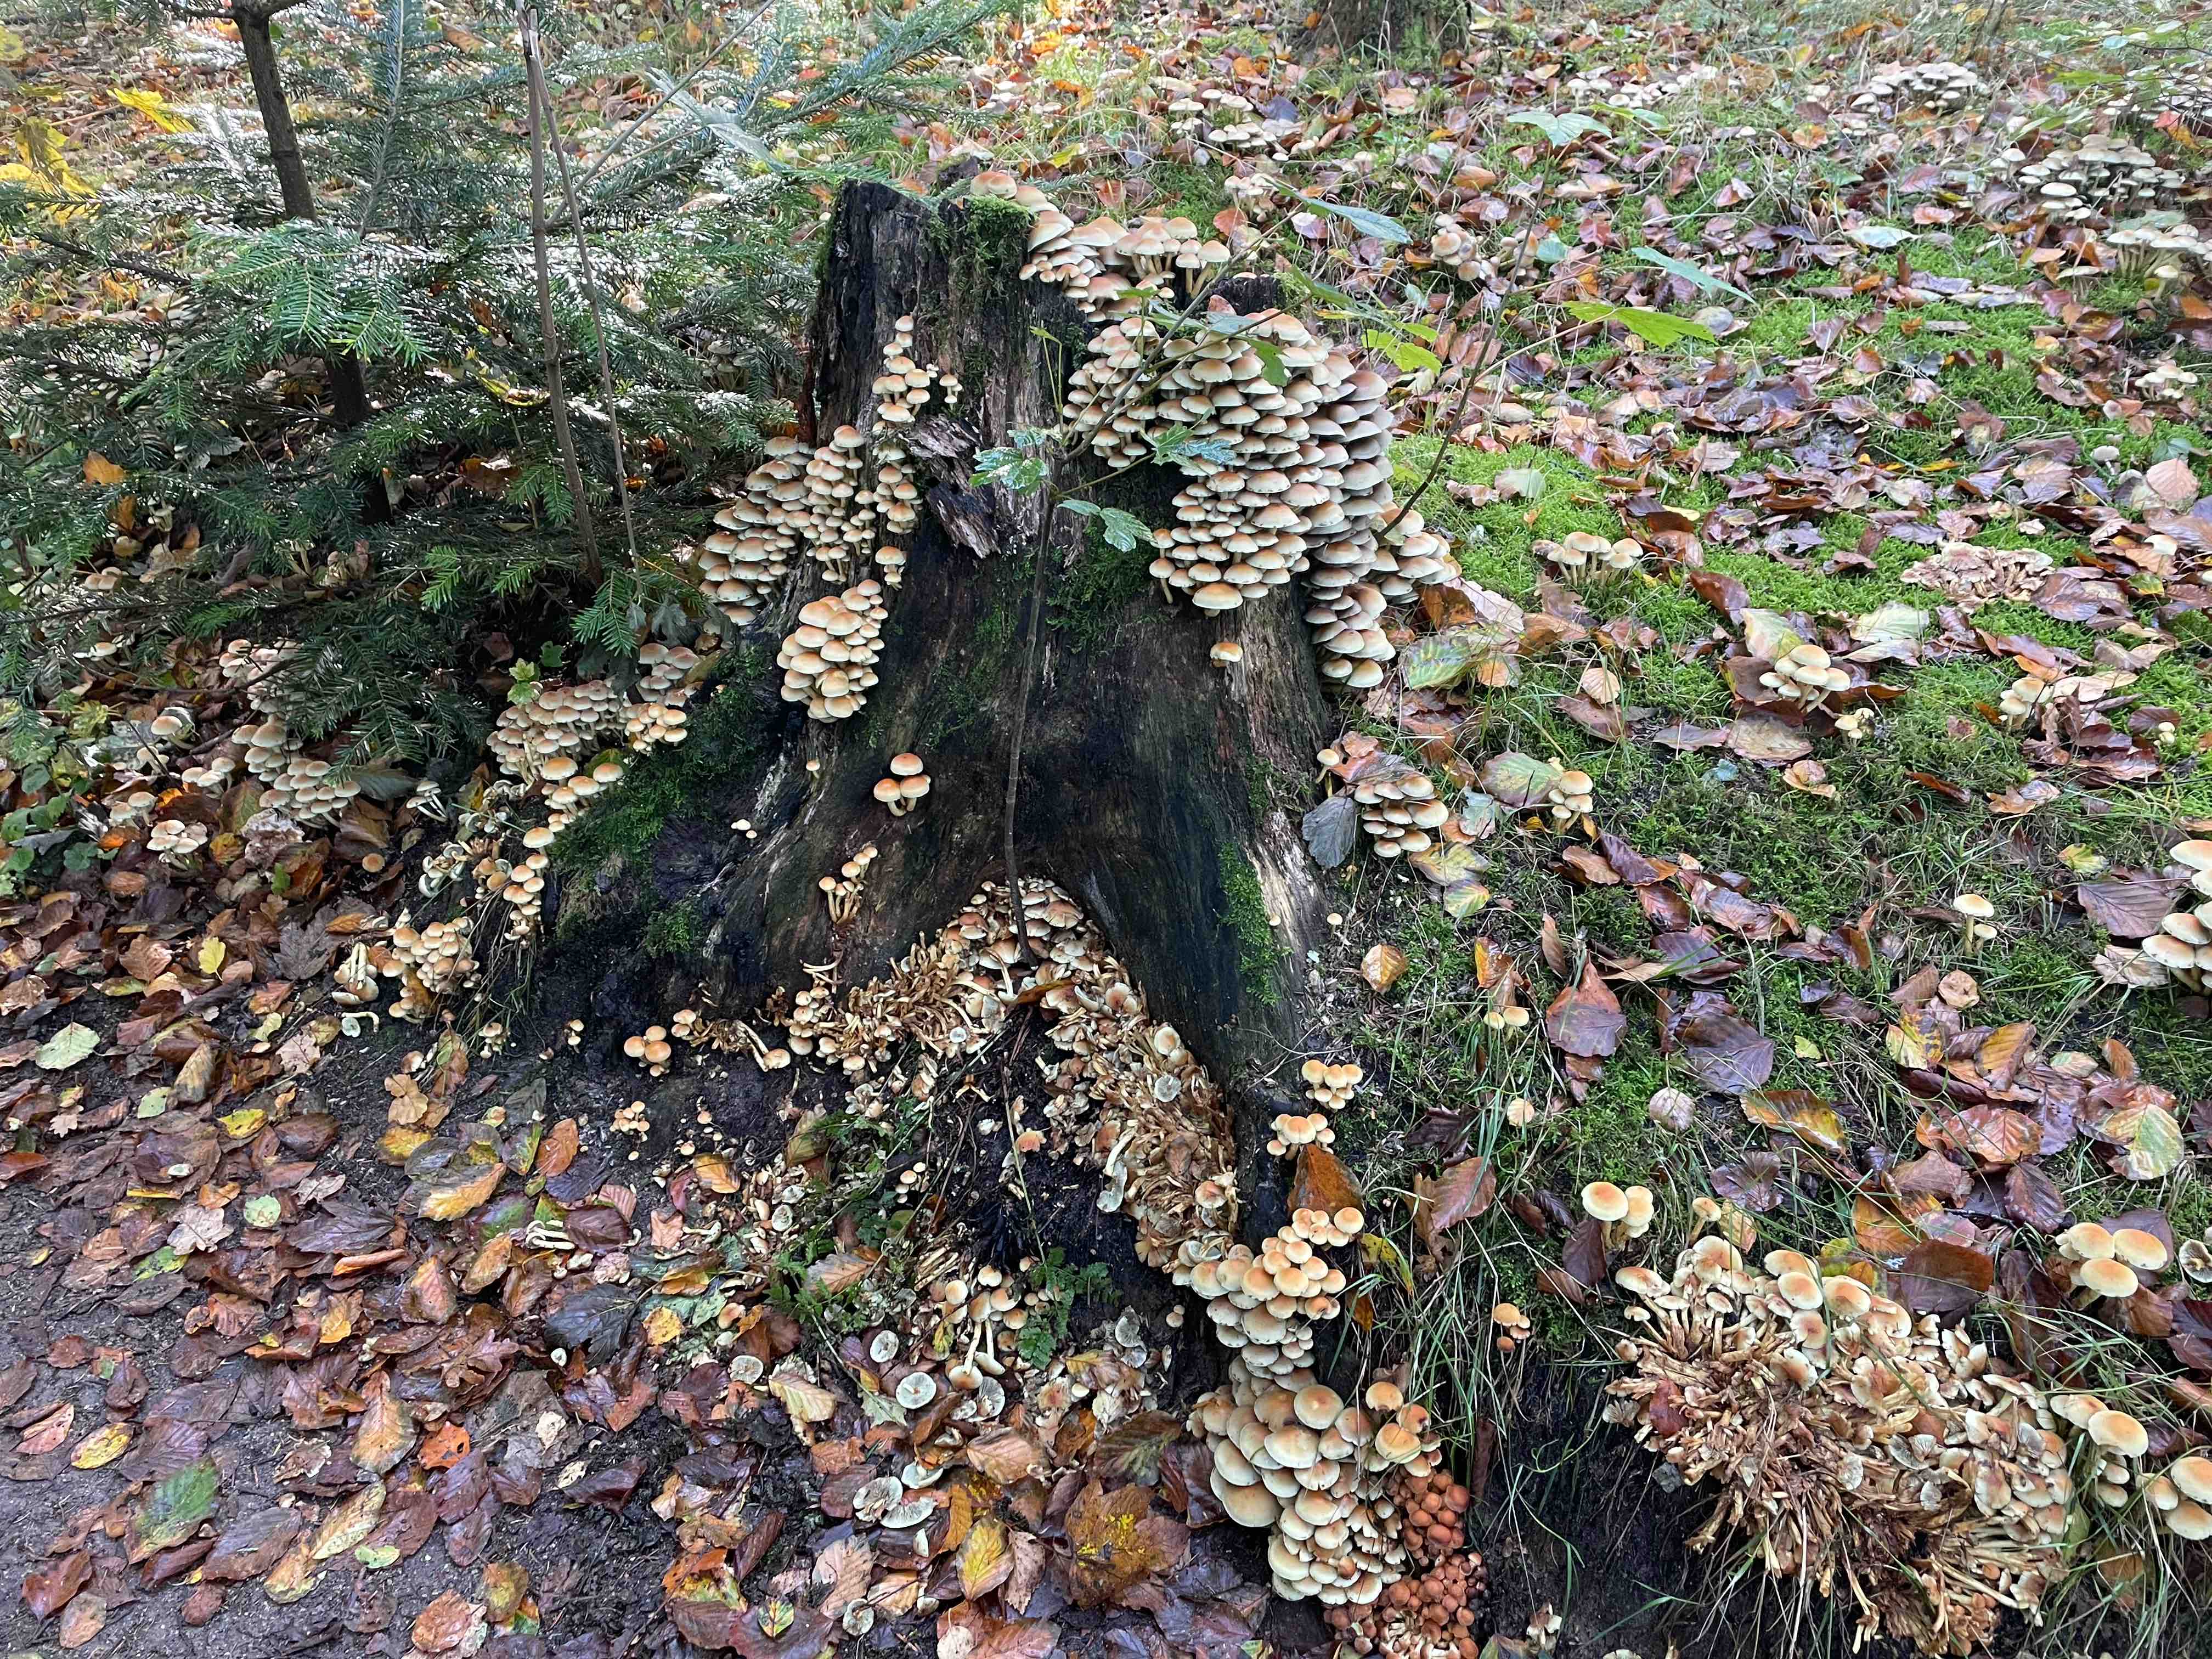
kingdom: Fungi
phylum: Basidiomycota
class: Agaricomycetes
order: Agaricales
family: Strophariaceae
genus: Hypholoma
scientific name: Hypholoma fasciculare
